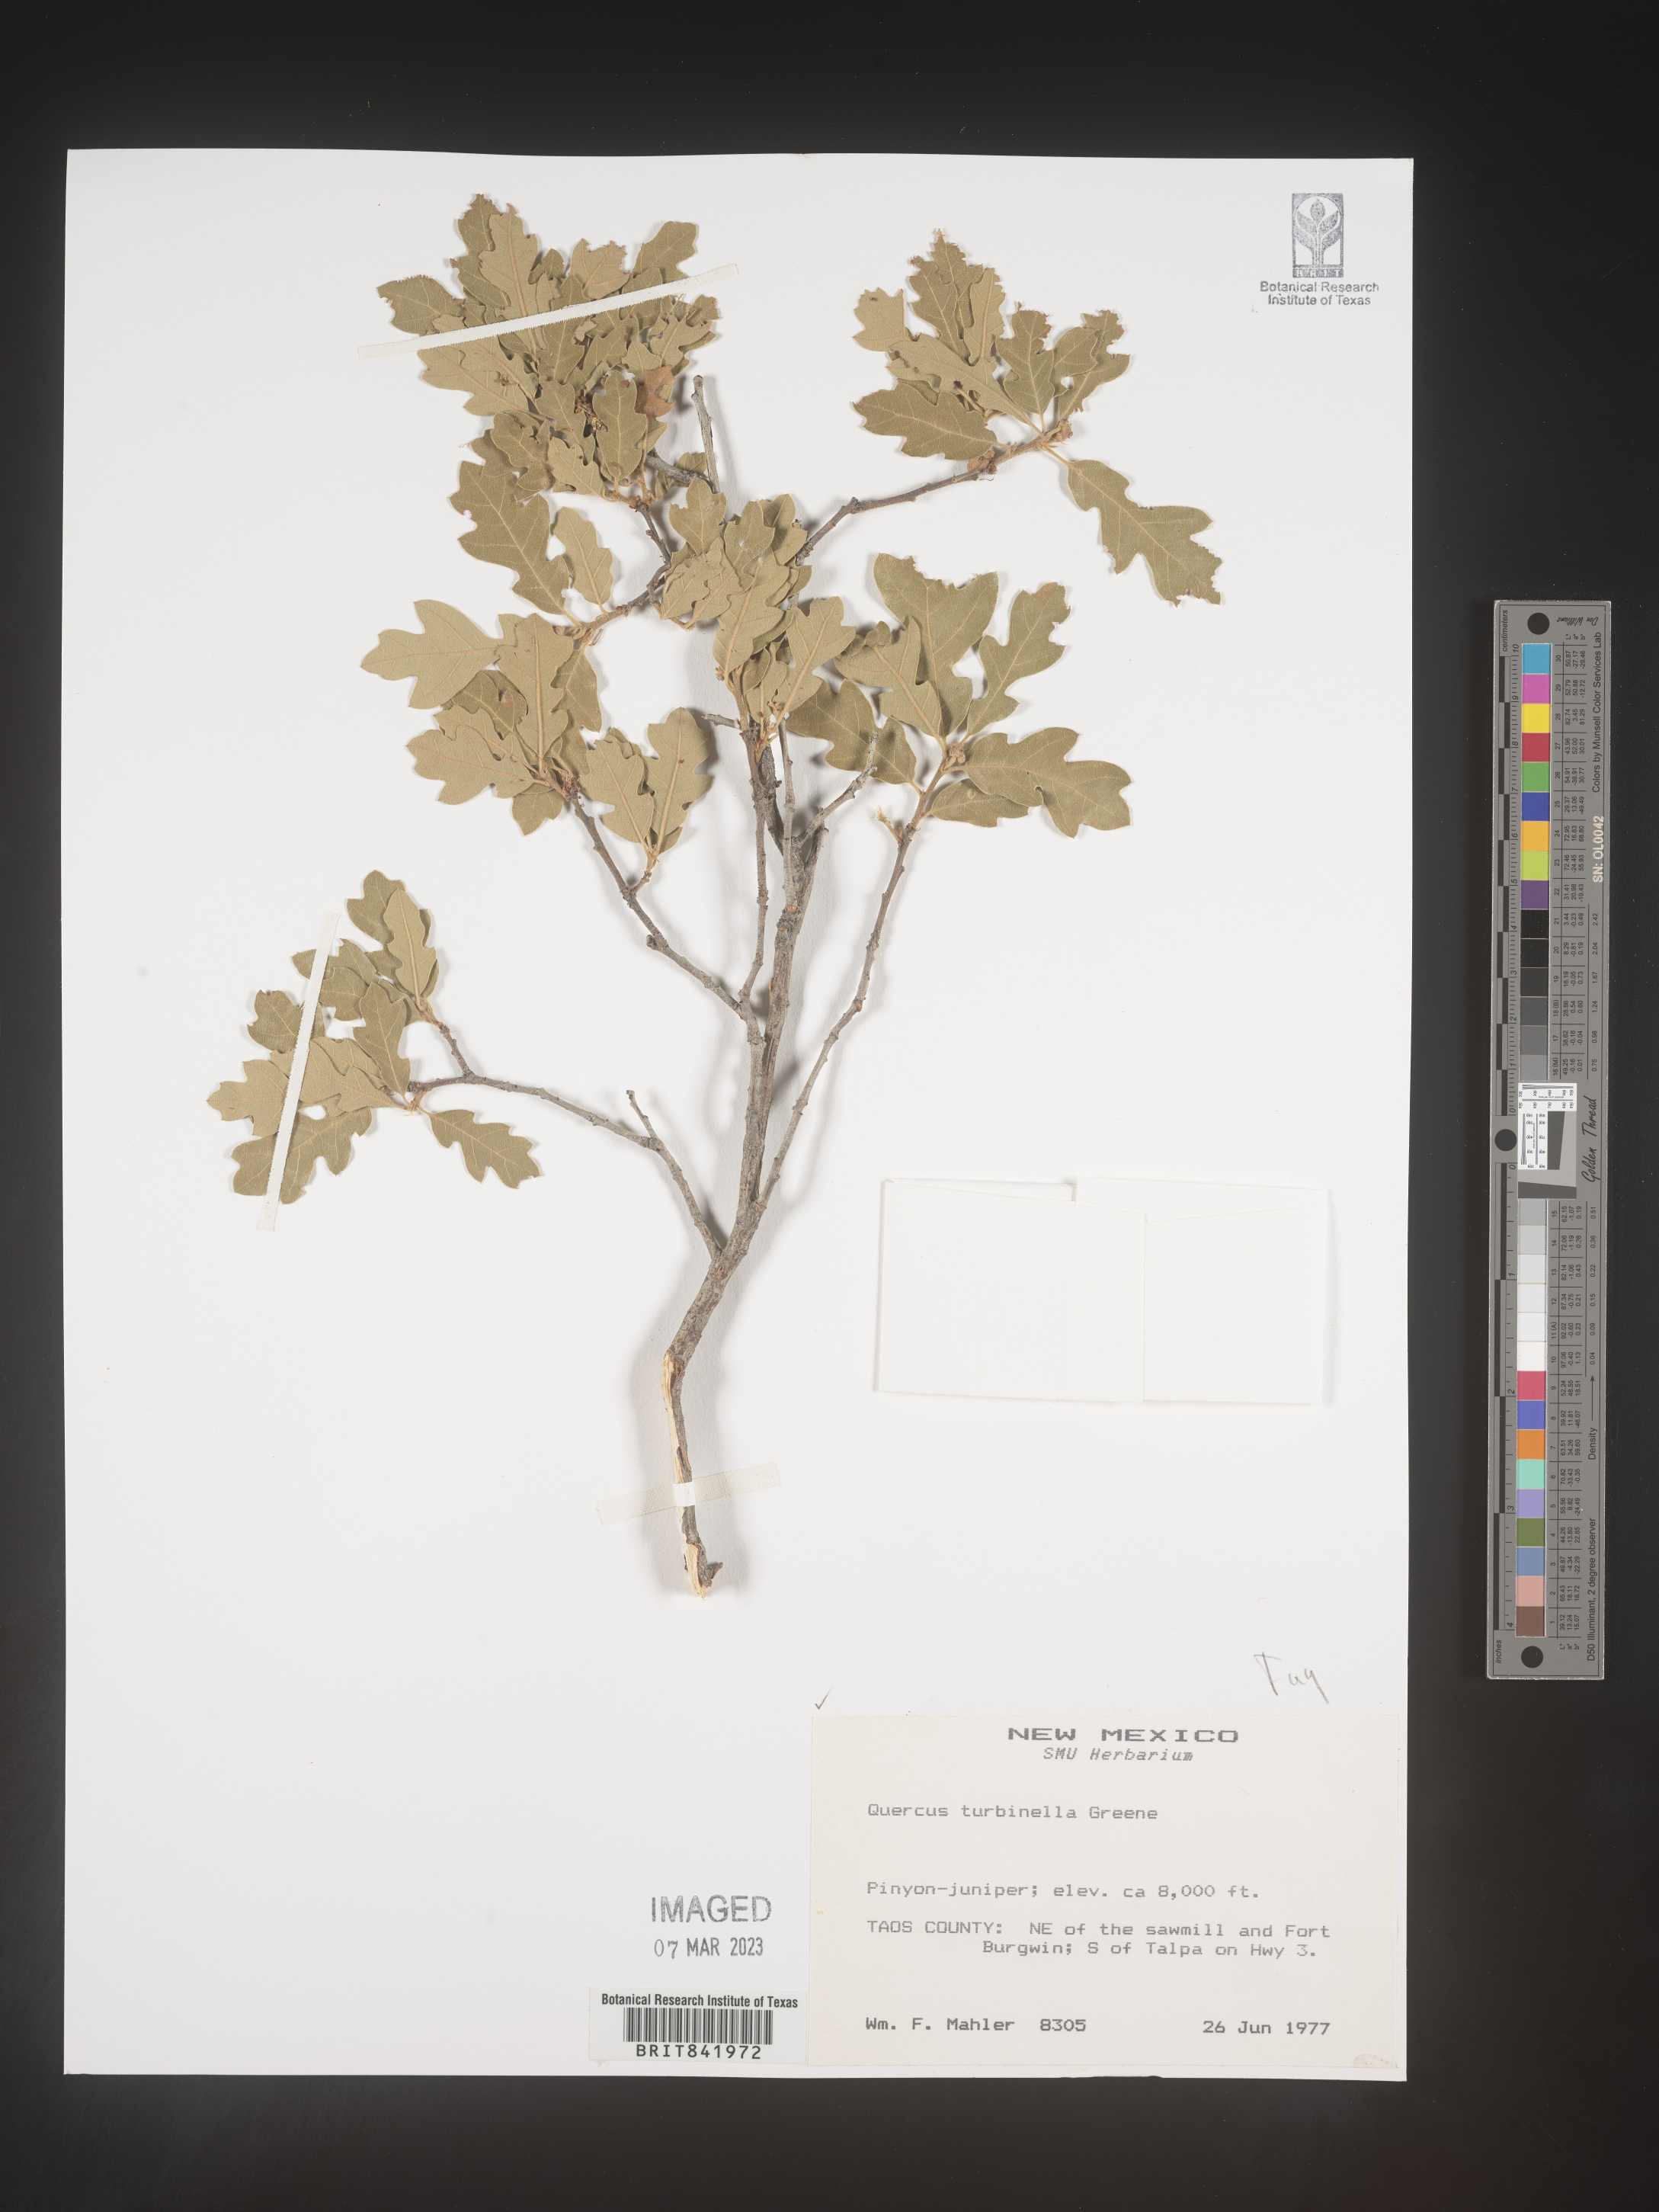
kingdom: Plantae
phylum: Tracheophyta
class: Magnoliopsida
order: Fagales
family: Fagaceae
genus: Quercus
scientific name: Quercus turbinella
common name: Sonoran scrub oak
